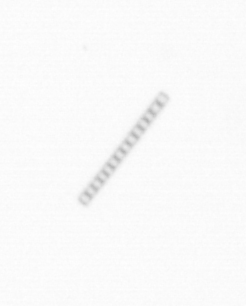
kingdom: Chromista
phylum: Ochrophyta
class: Bacillariophyceae
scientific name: Bacillariophyceae
